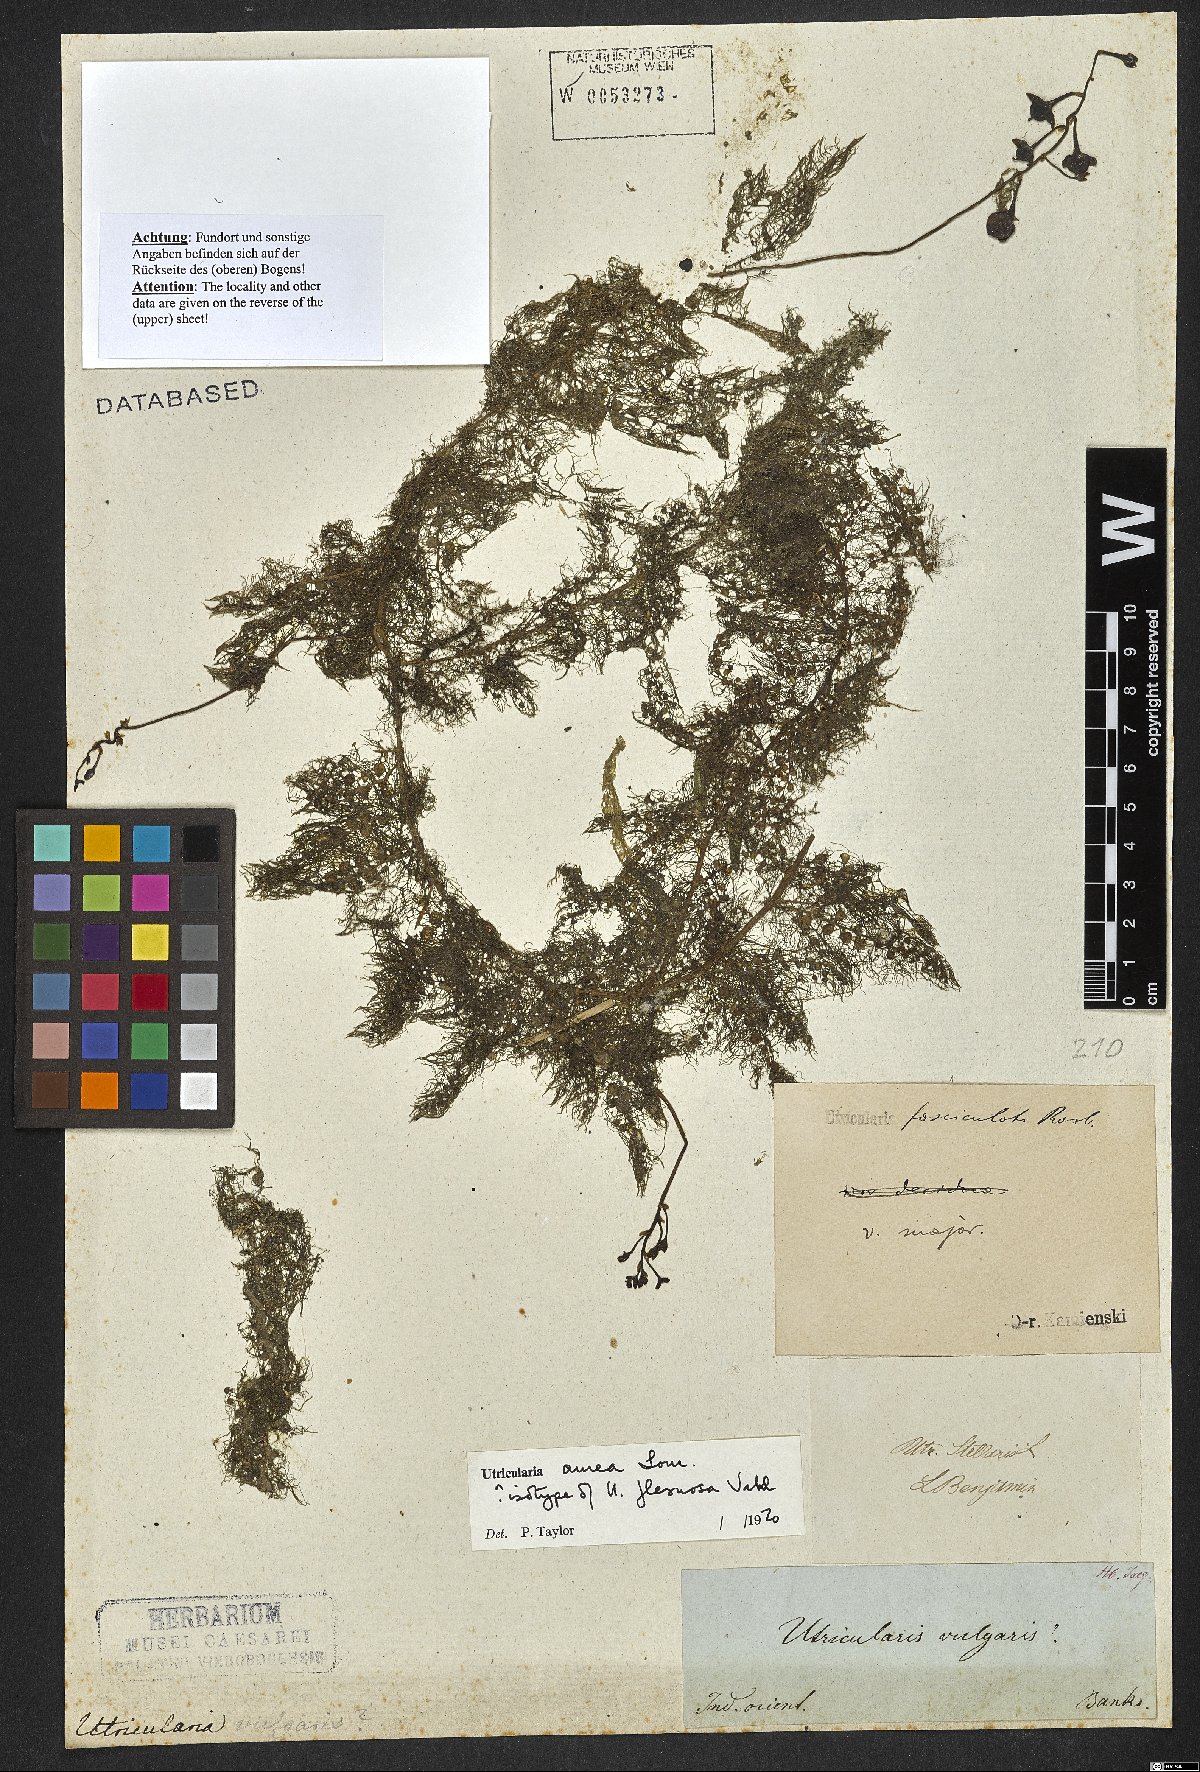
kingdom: Plantae
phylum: Tracheophyta
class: Magnoliopsida
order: Lamiales
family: Lentibulariaceae
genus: Utricularia
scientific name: Utricularia aurea
